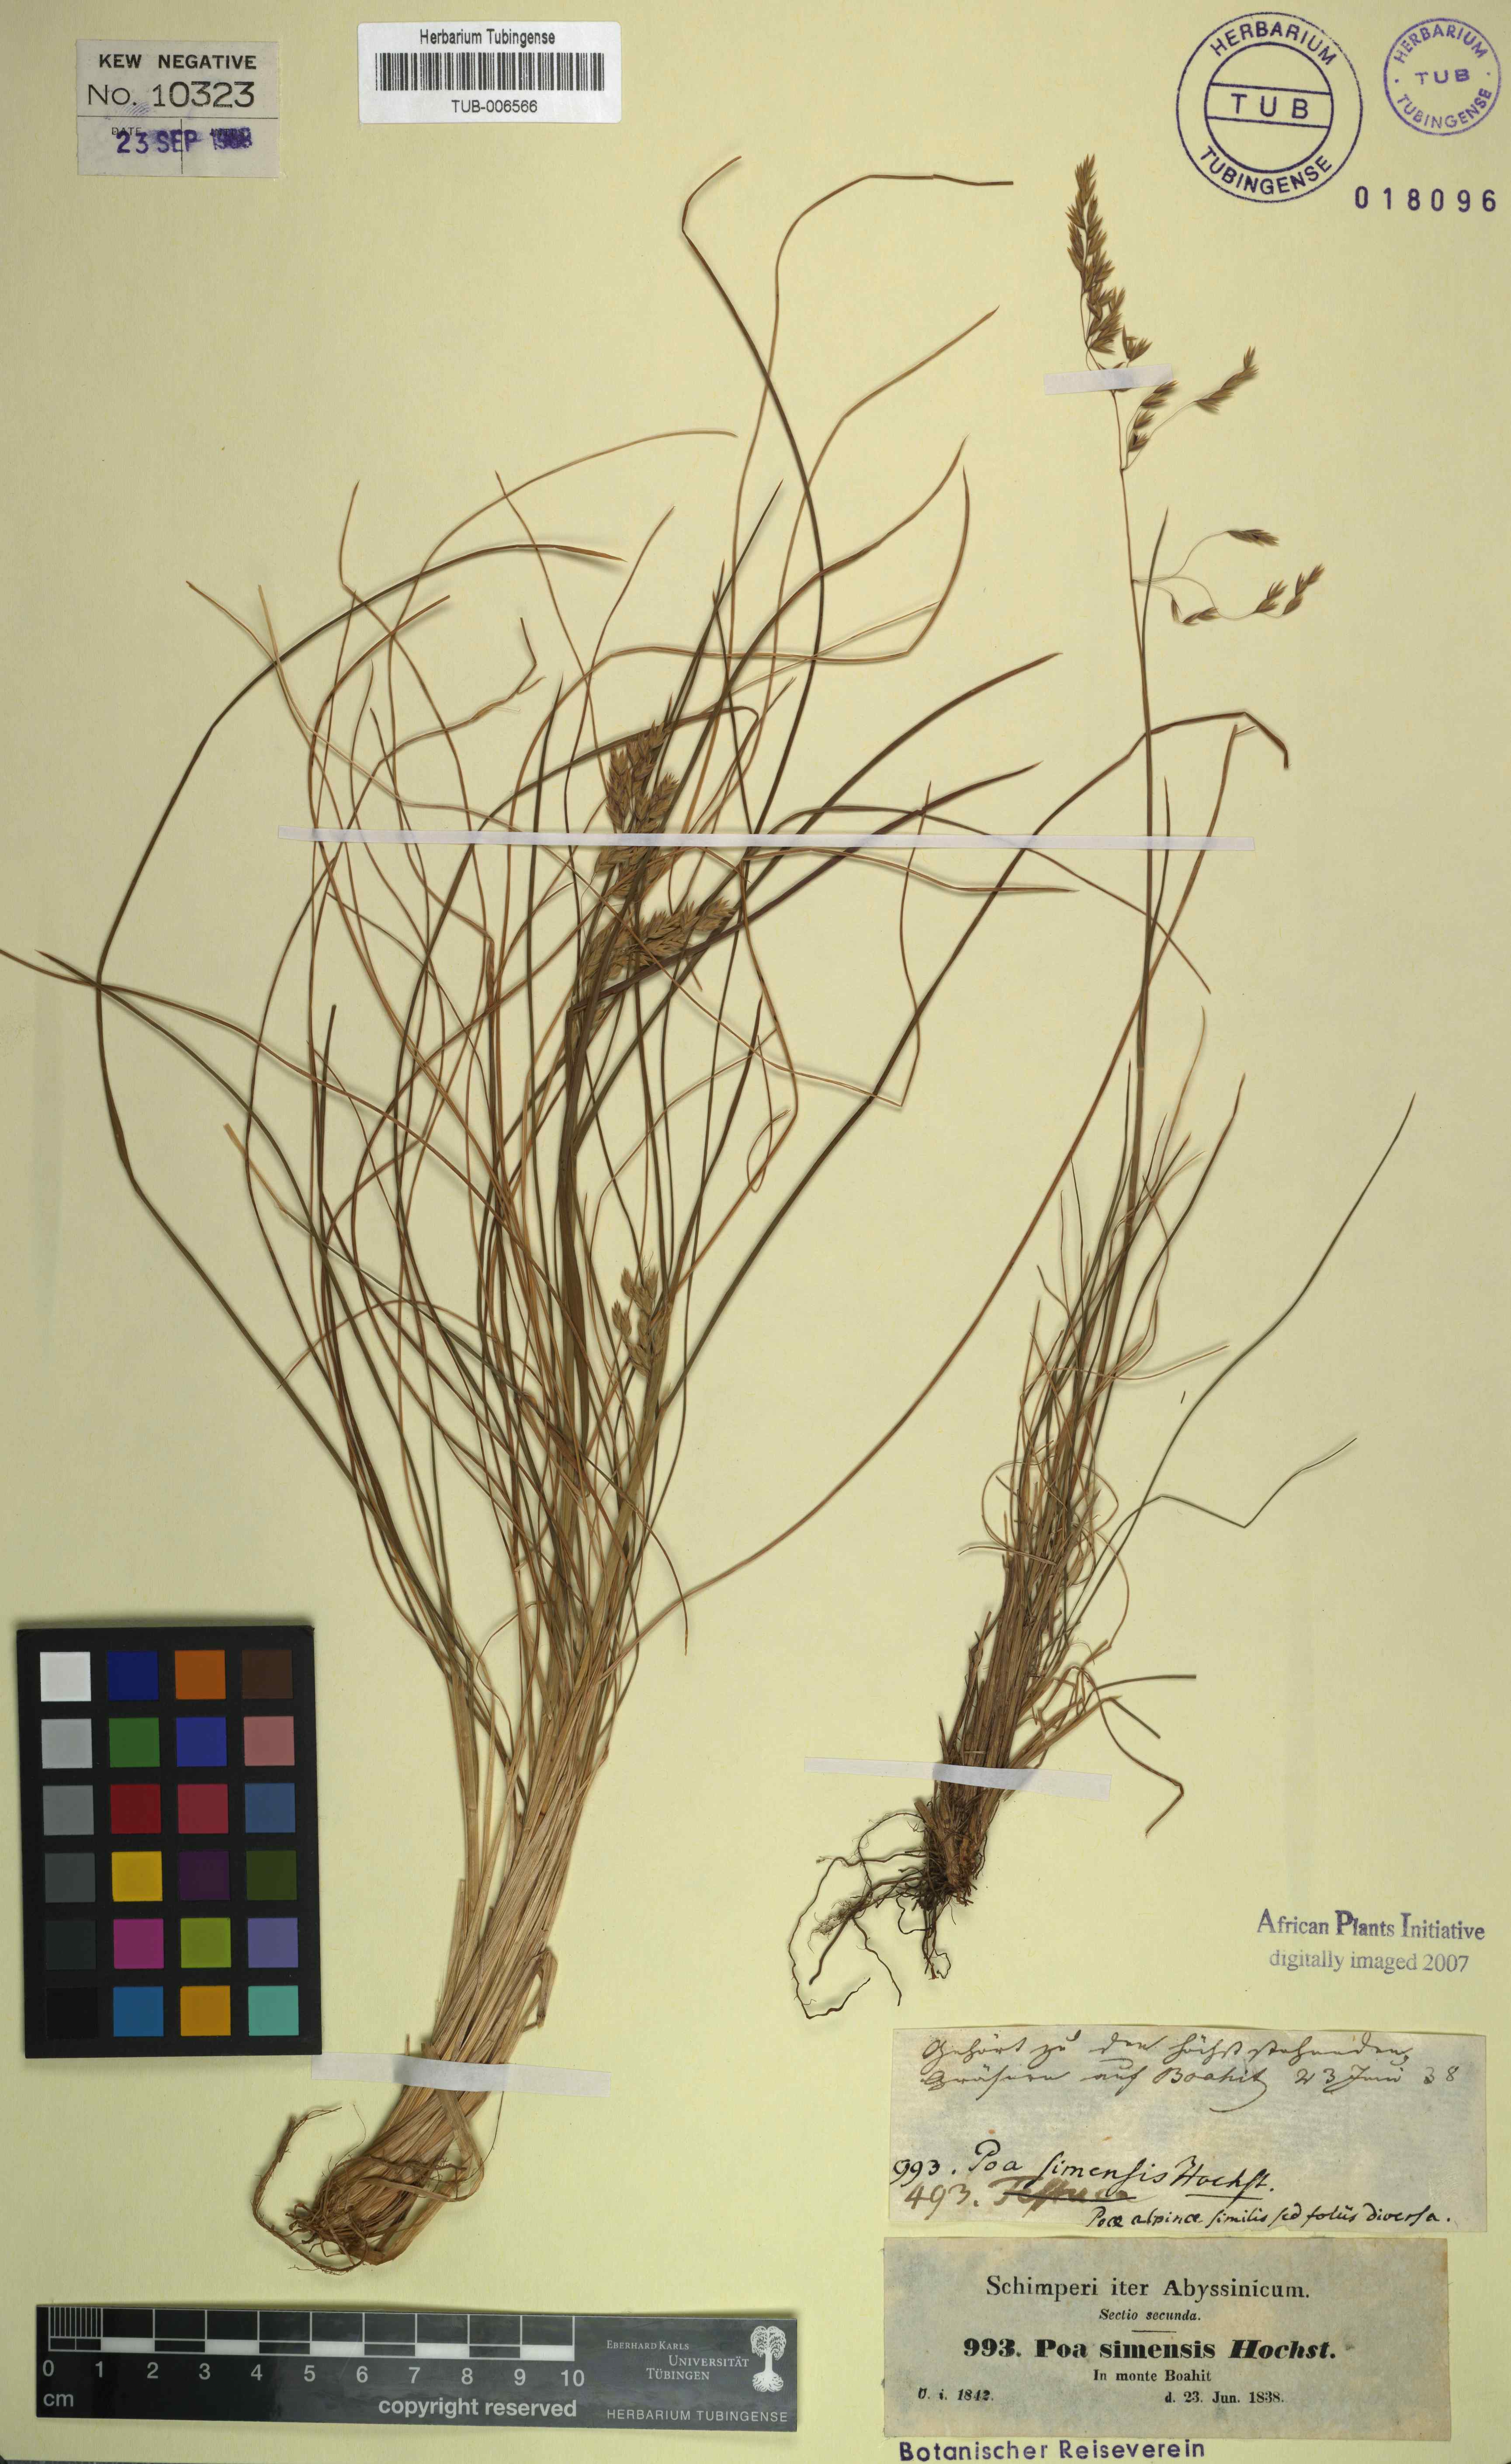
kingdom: Plantae
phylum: Tracheophyta
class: Liliopsida
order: Poales
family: Poaceae
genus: Poa
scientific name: Poa simensis
